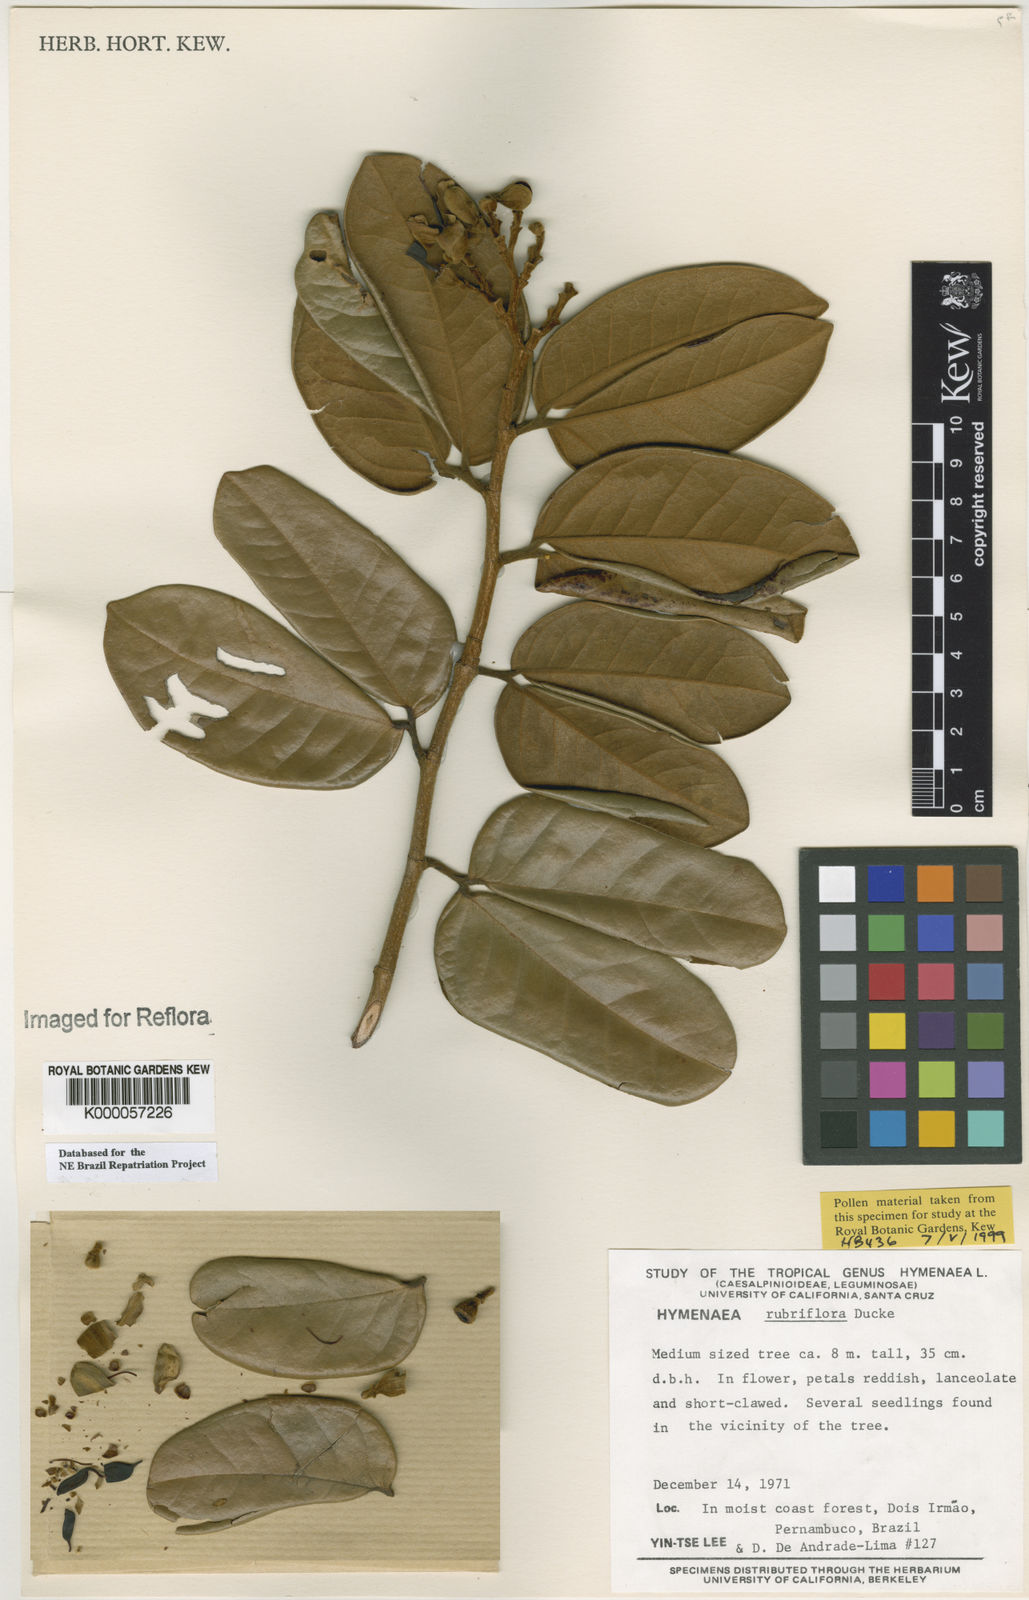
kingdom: Plantae
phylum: Tracheophyta
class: Magnoliopsida
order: Fabales
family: Fabaceae
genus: Hymenaea
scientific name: Hymenaea rubriflora
